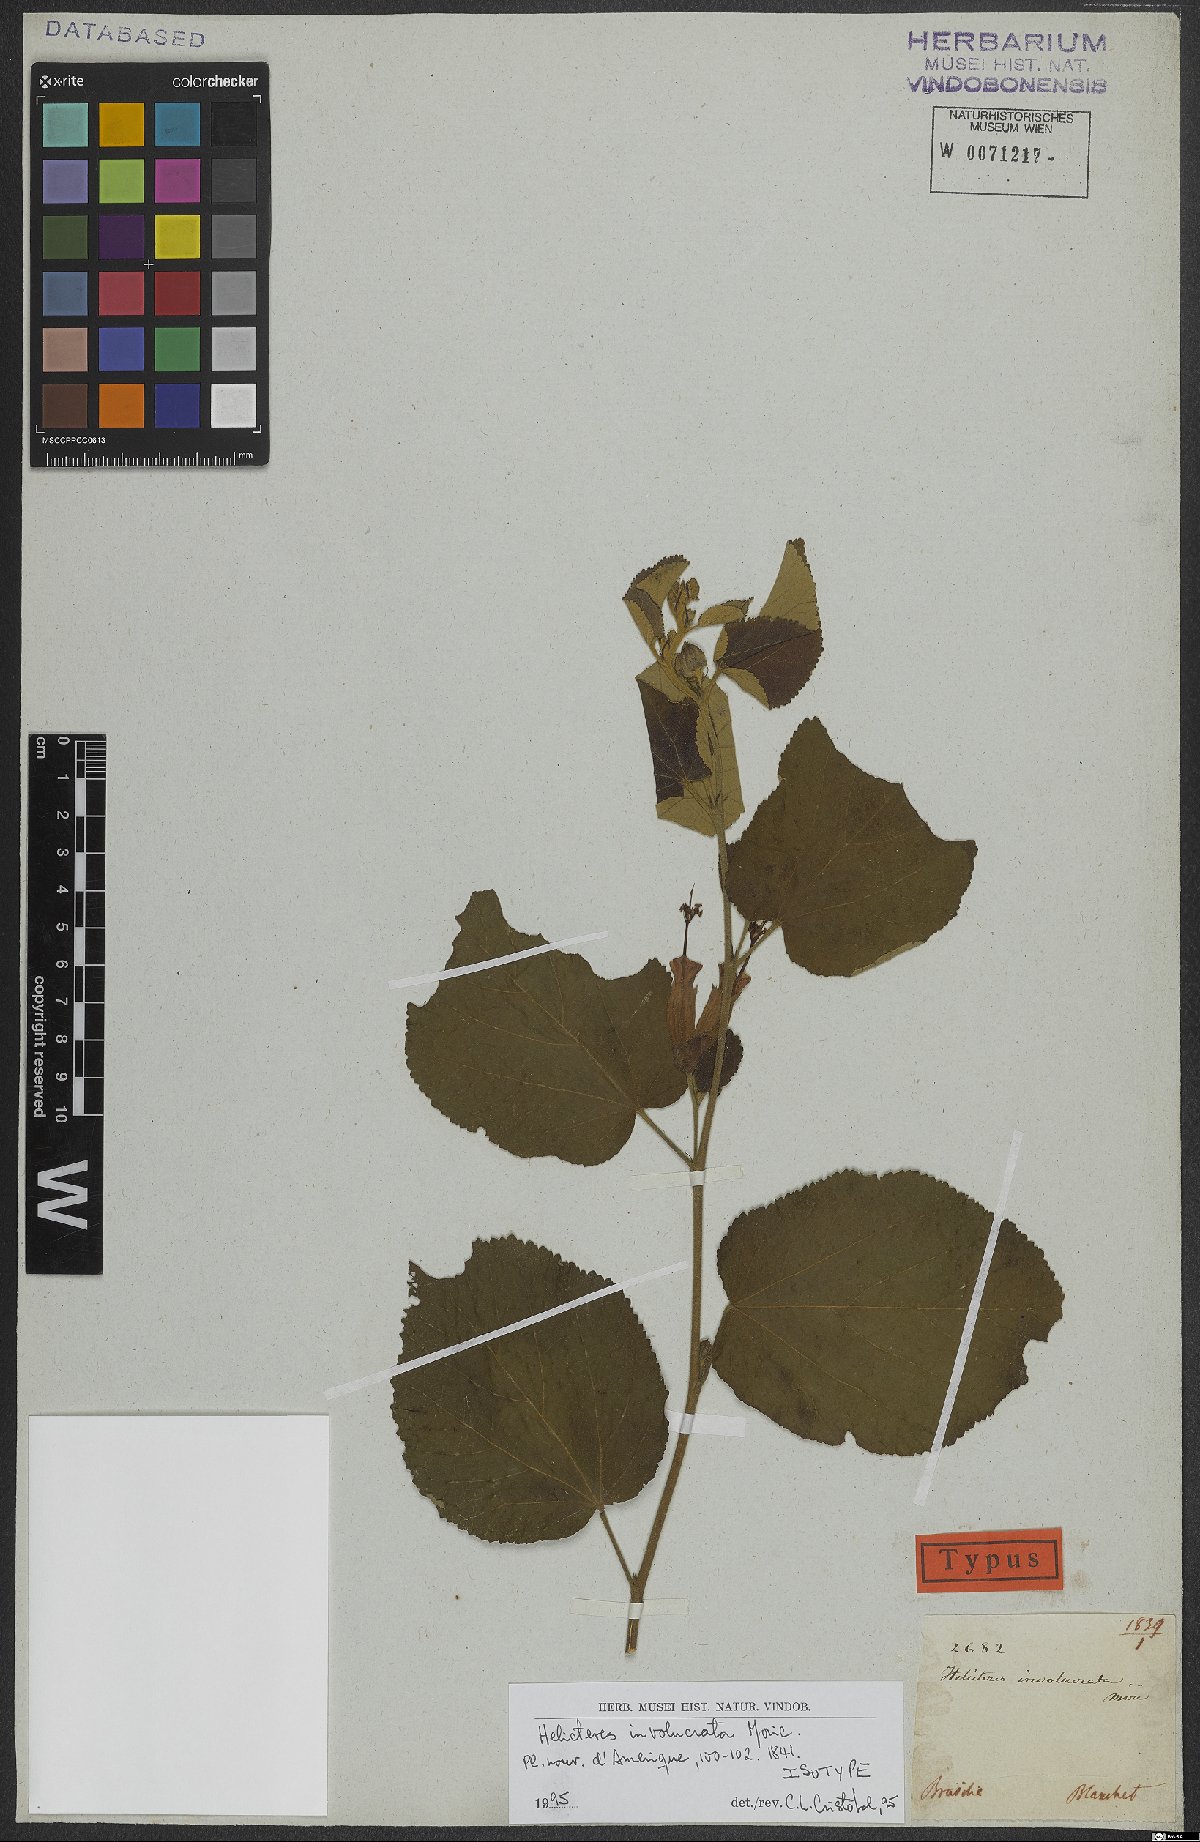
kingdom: Plantae
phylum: Tracheophyta
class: Magnoliopsida
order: Malvales
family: Malvaceae
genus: Helicteres
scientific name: Helicteres corylifolia
